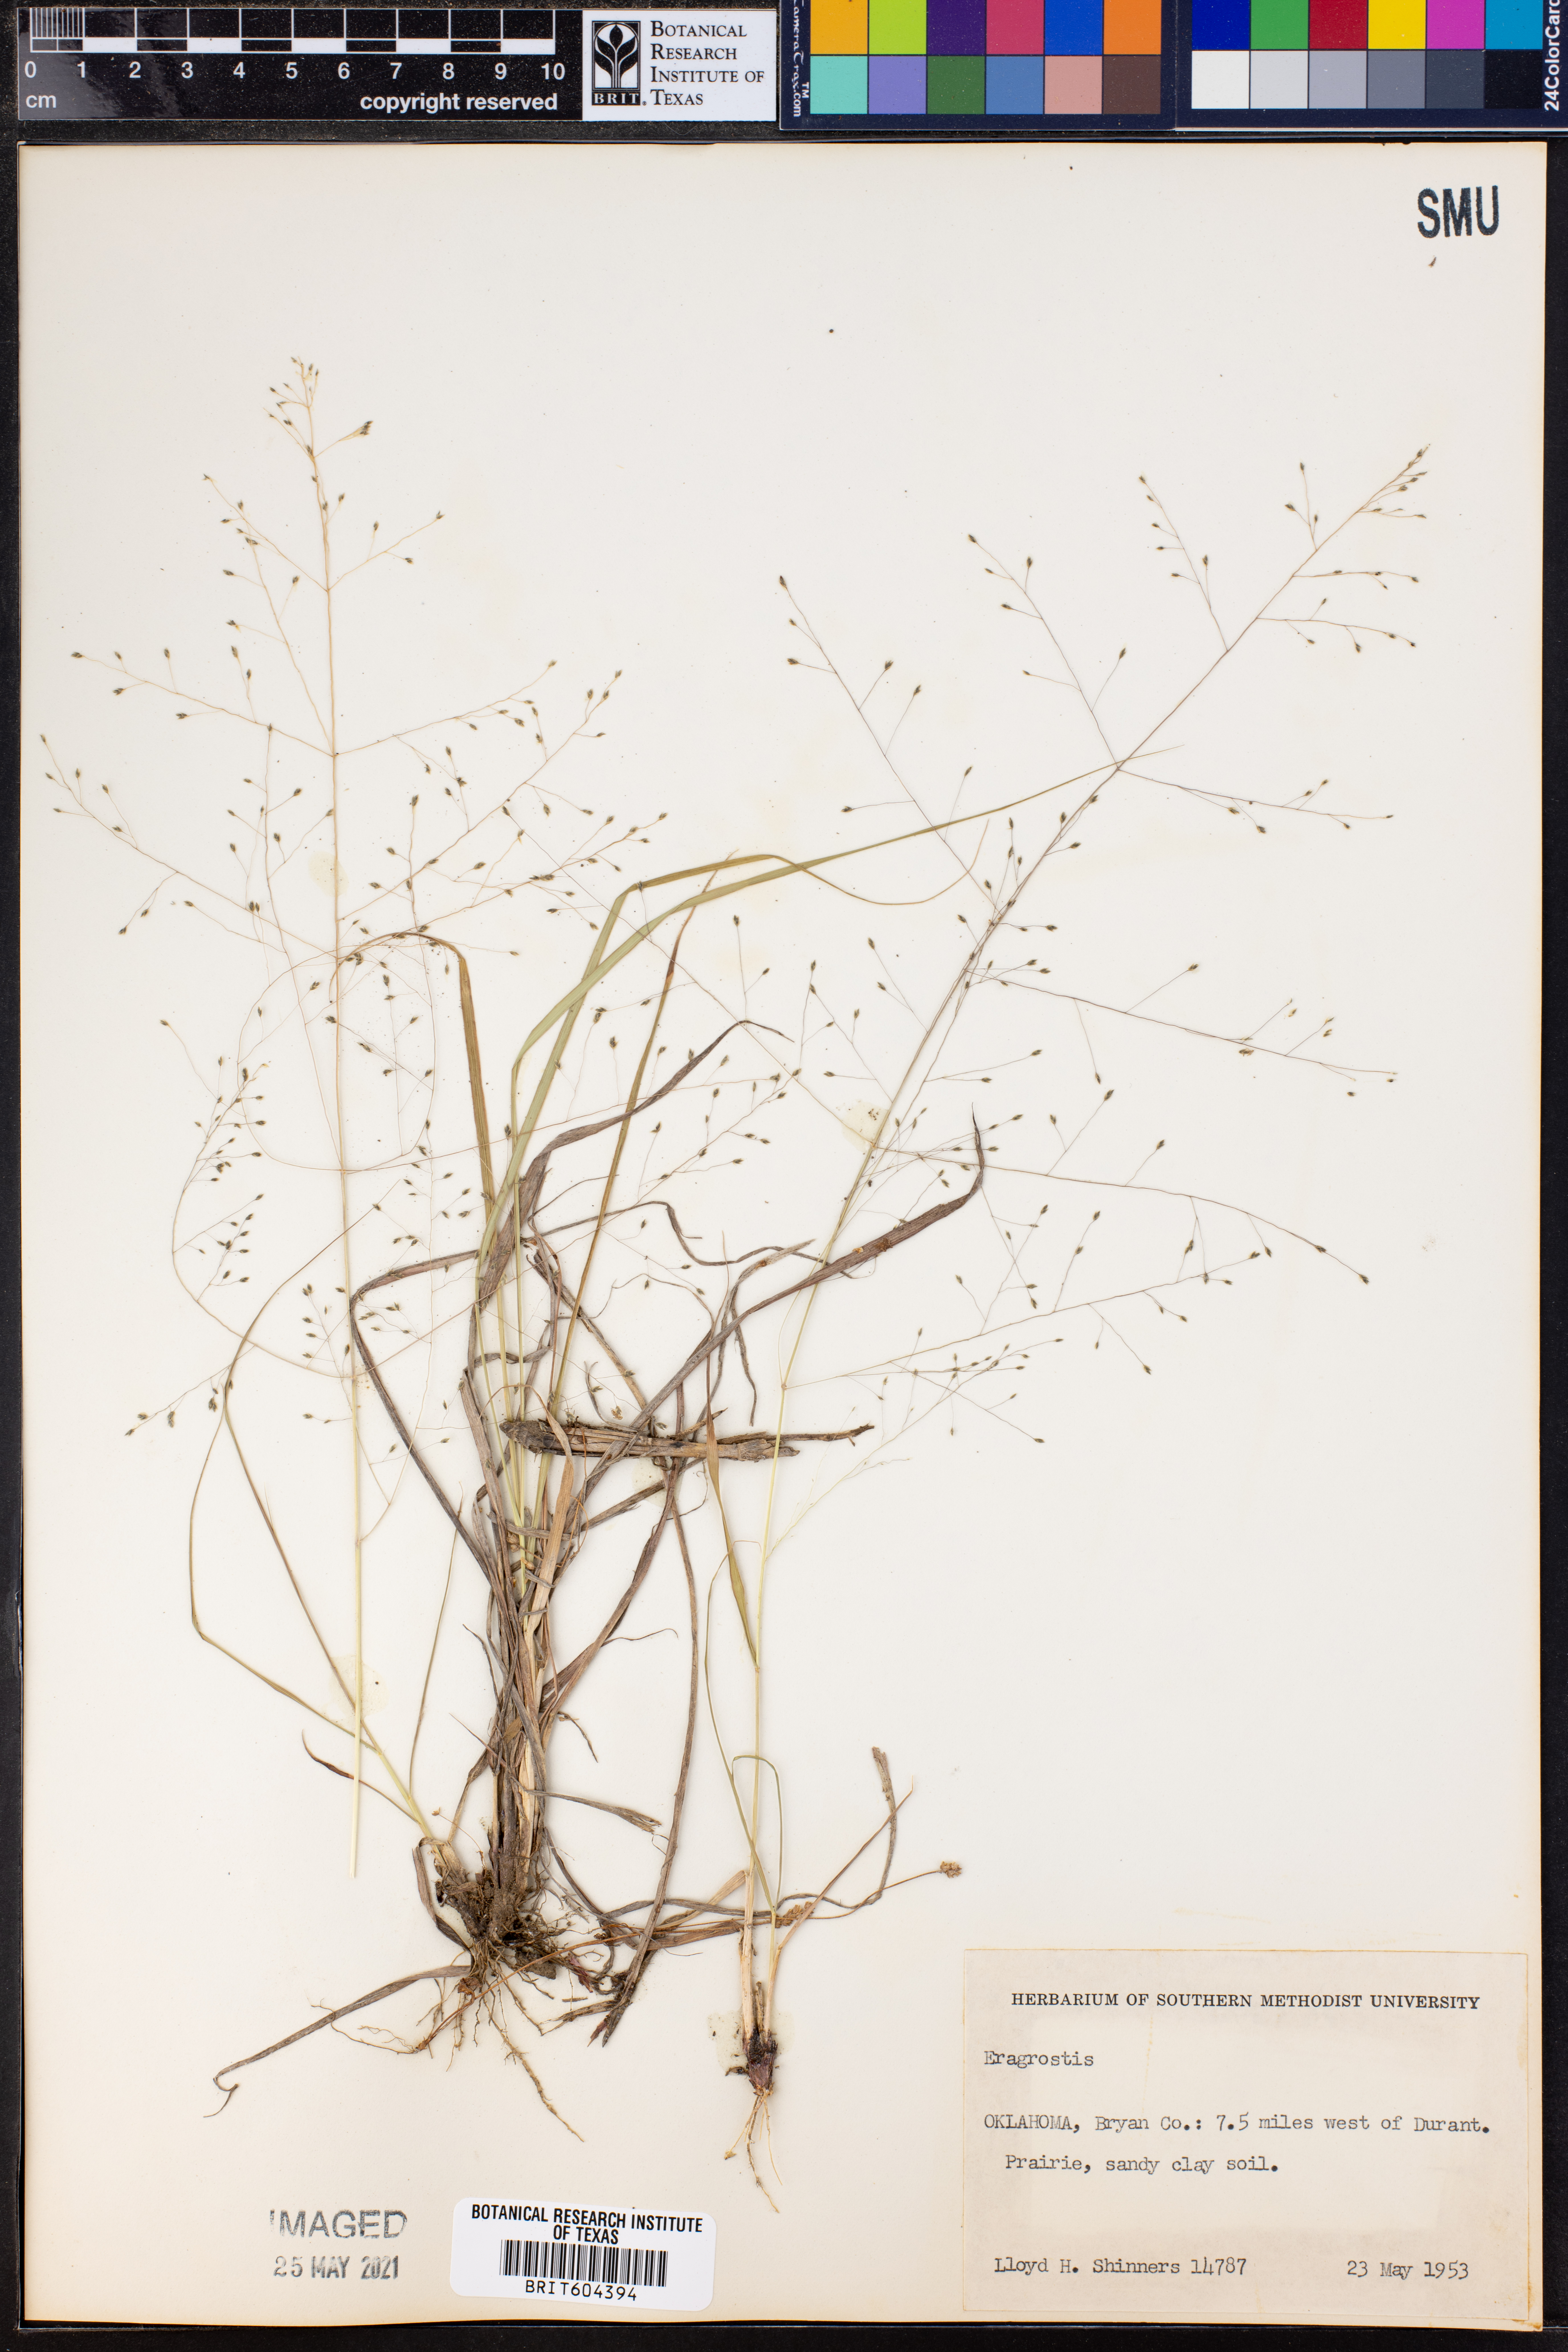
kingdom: Plantae
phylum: Tracheophyta
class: Liliopsida
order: Poales
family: Poaceae
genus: Eragrostis
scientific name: Eragrostis
